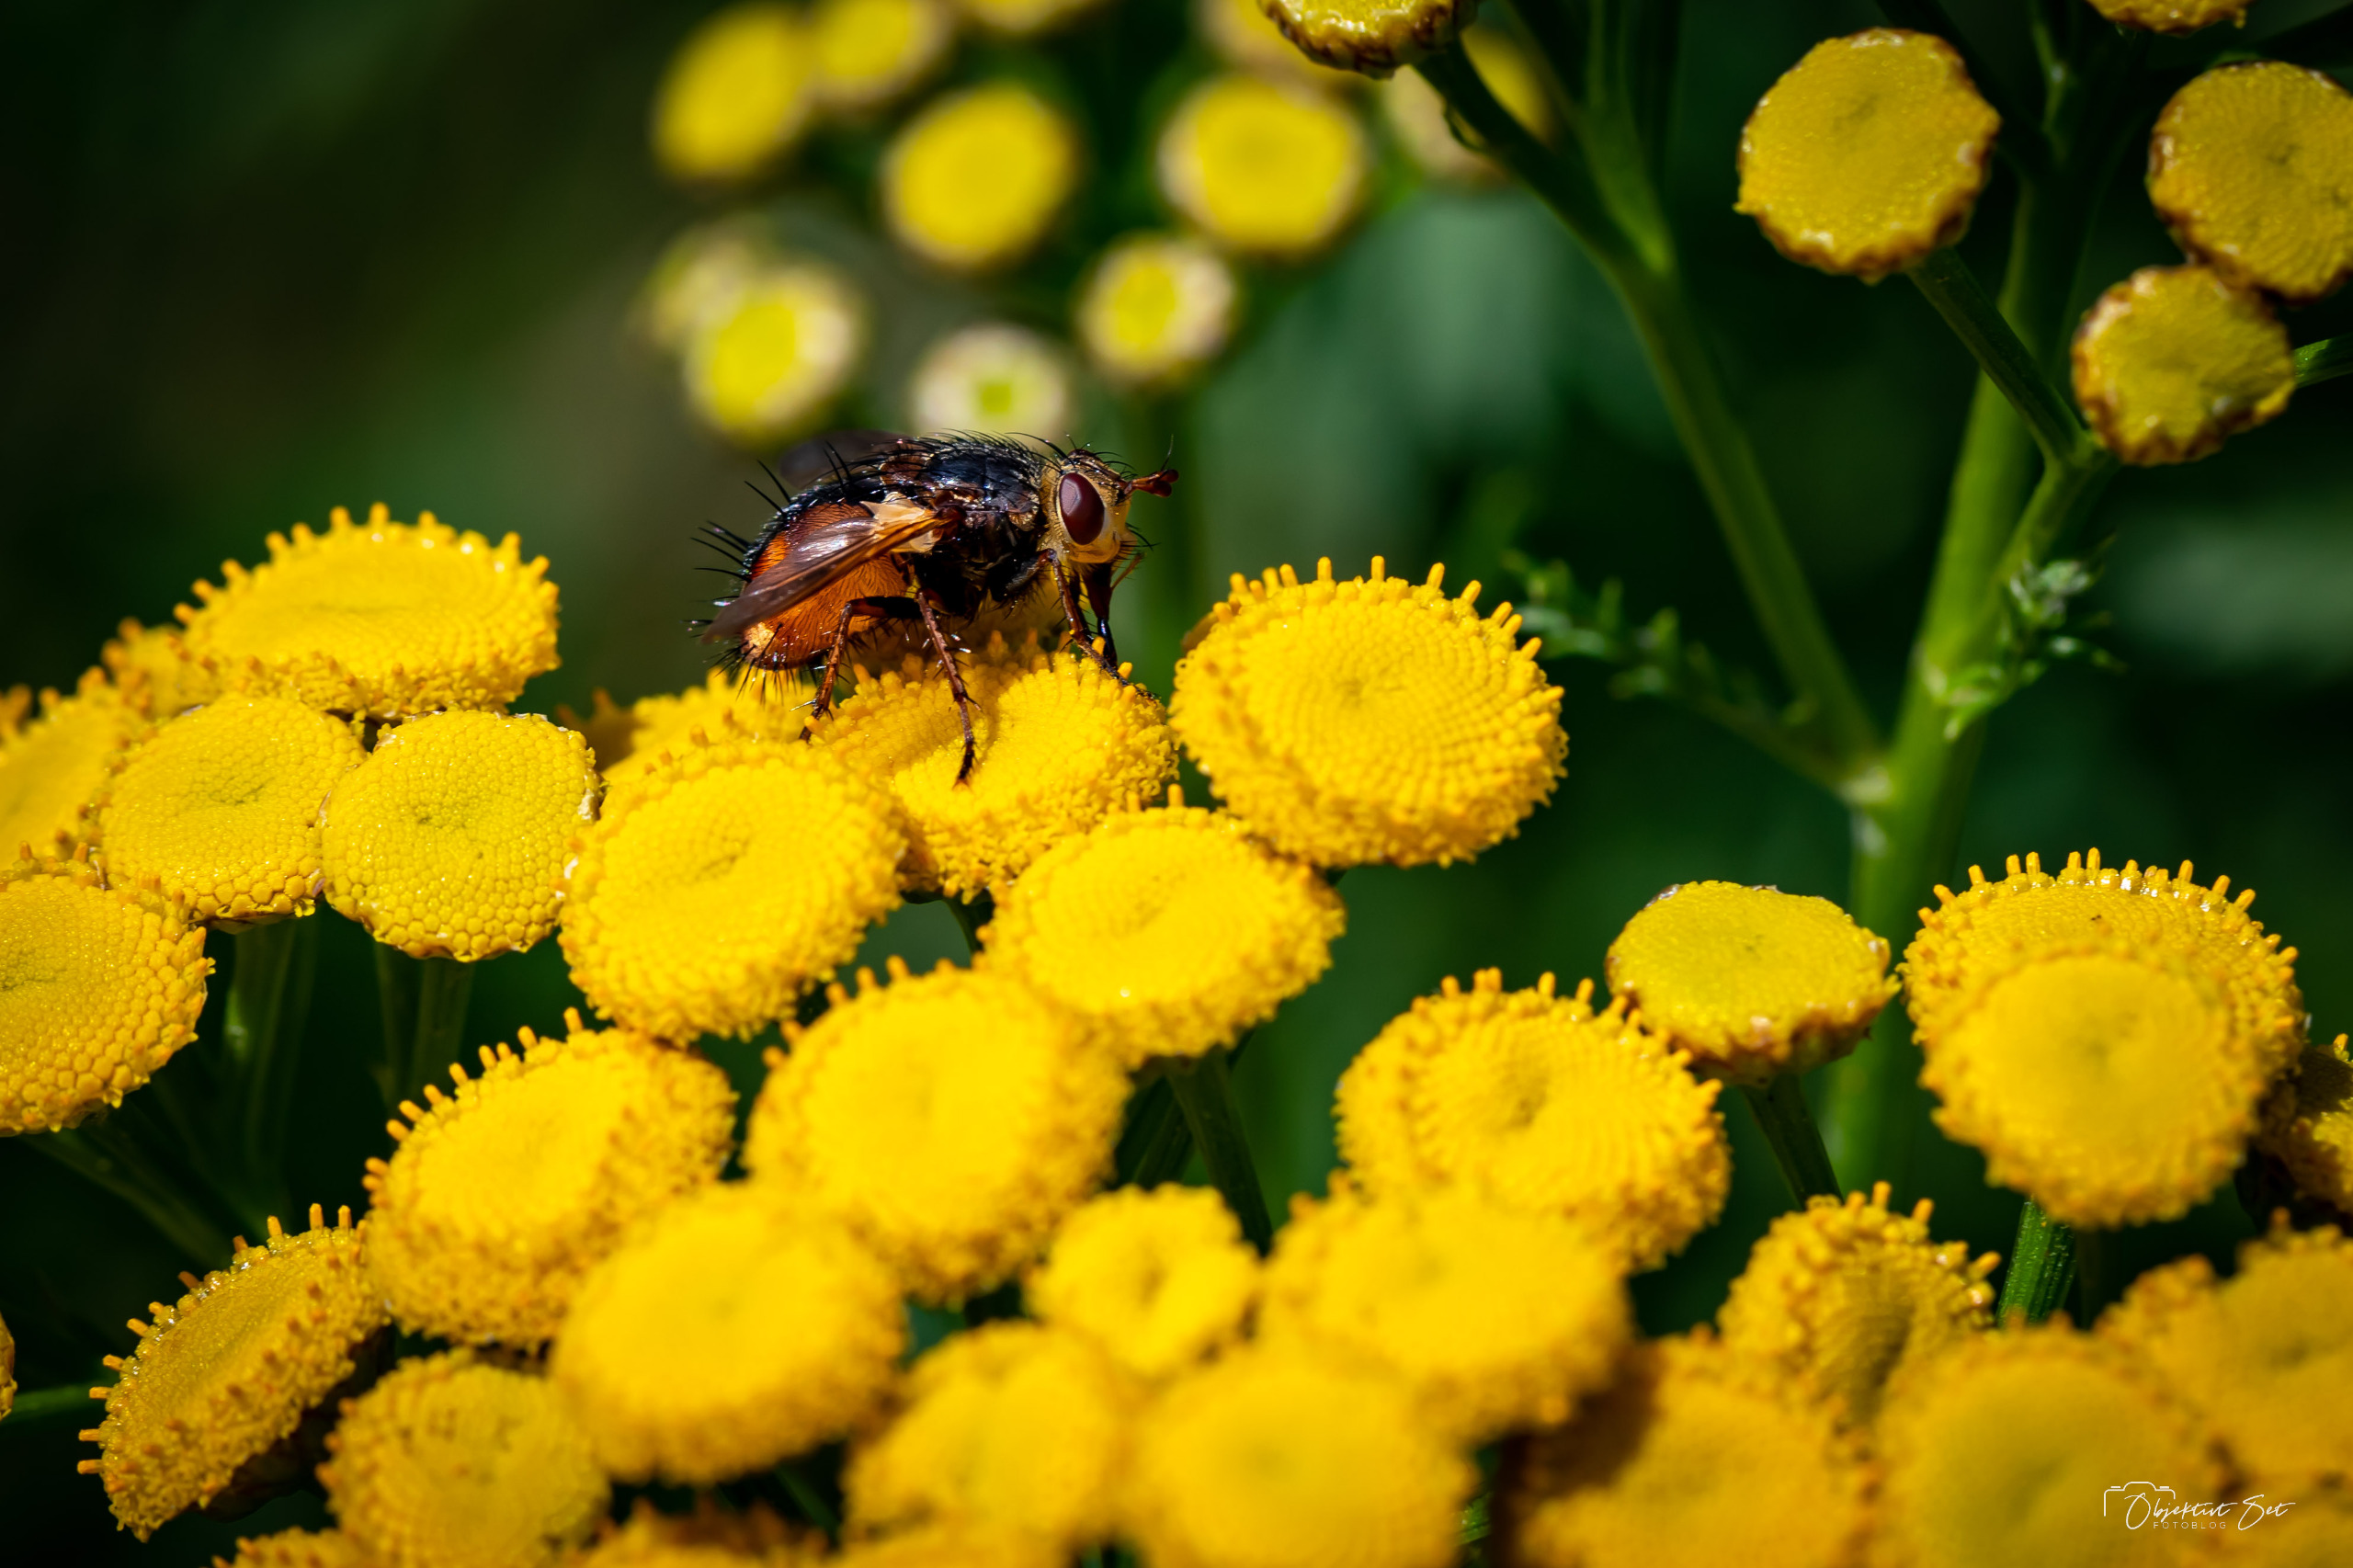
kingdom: Animalia
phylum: Arthropoda
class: Insecta
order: Diptera
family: Tachinidae
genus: Tachina
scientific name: Tachina fera
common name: Mellemfluen oskar
